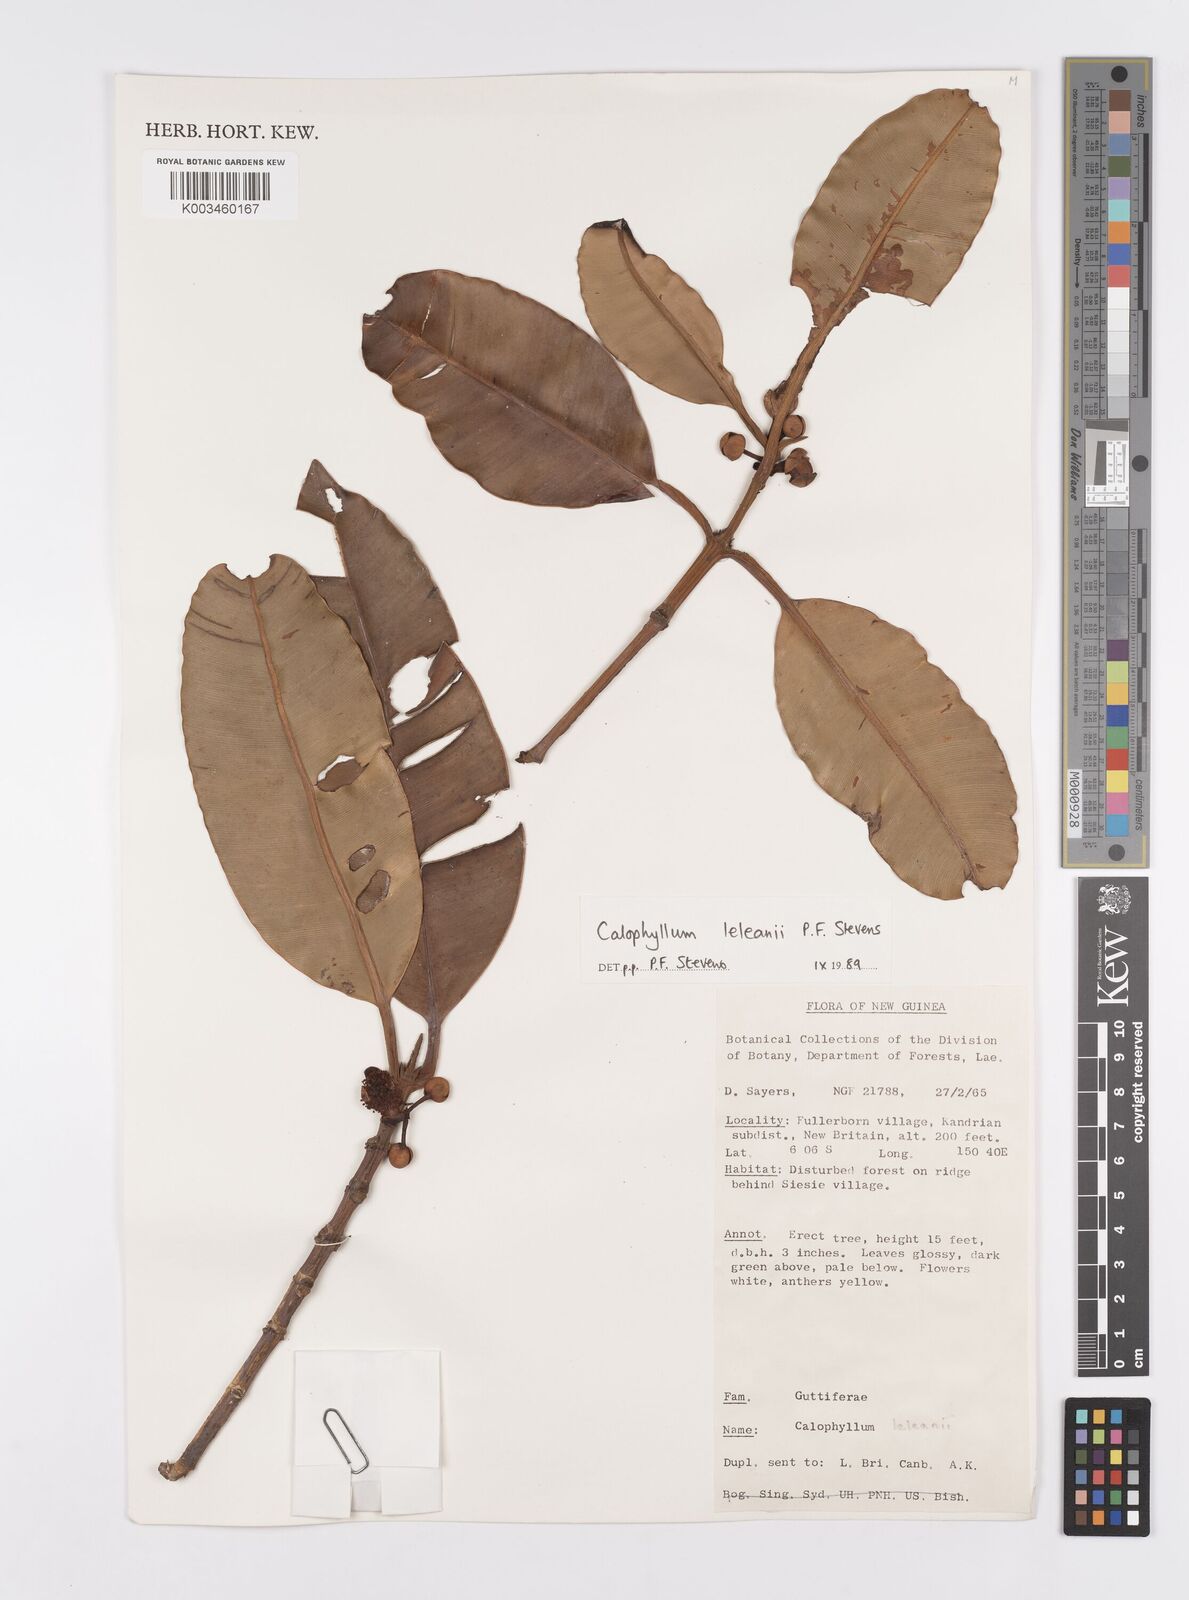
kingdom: Plantae
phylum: Tracheophyta
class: Magnoliopsida
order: Malpighiales
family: Calophyllaceae
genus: Calophyllum
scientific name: Calophyllum leleanii
